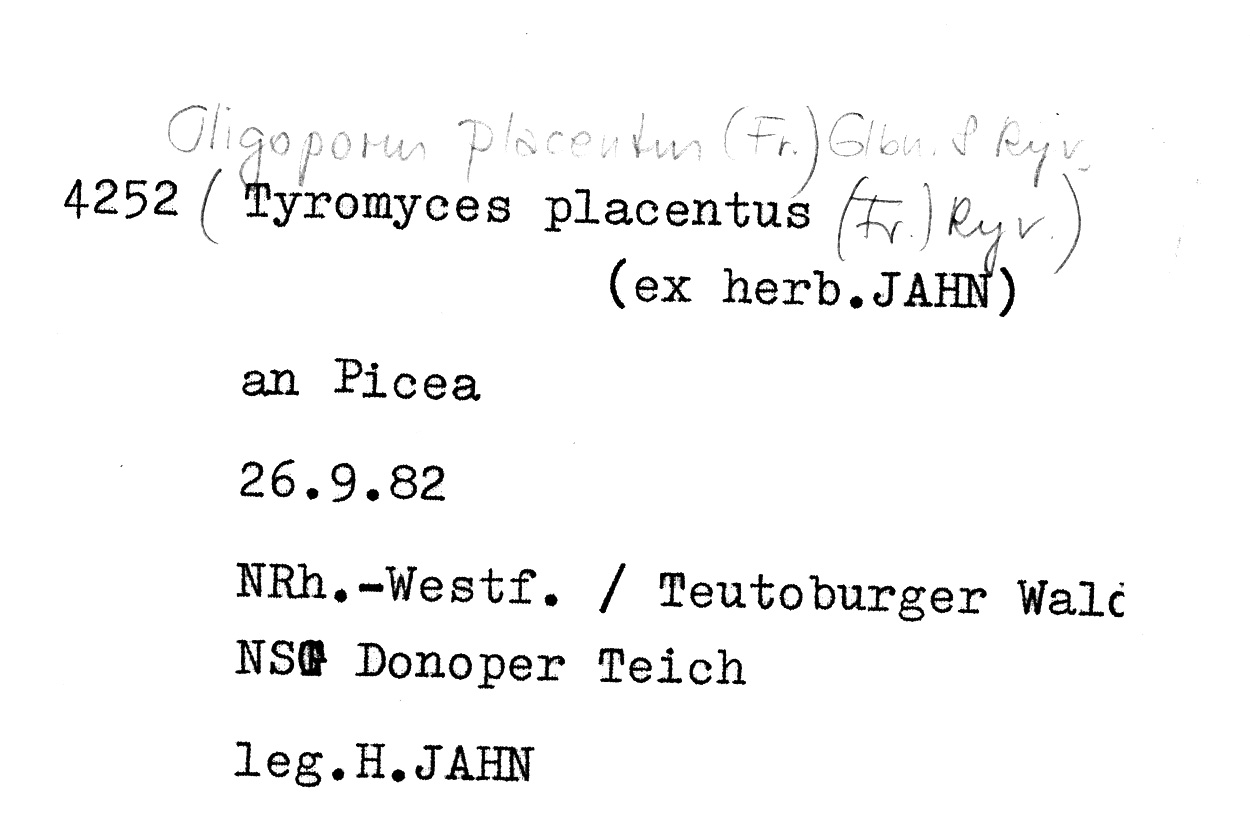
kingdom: Plantae
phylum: Tracheophyta
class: Pinopsida
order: Pinales
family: Pinaceae
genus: Picea
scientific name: Picea
